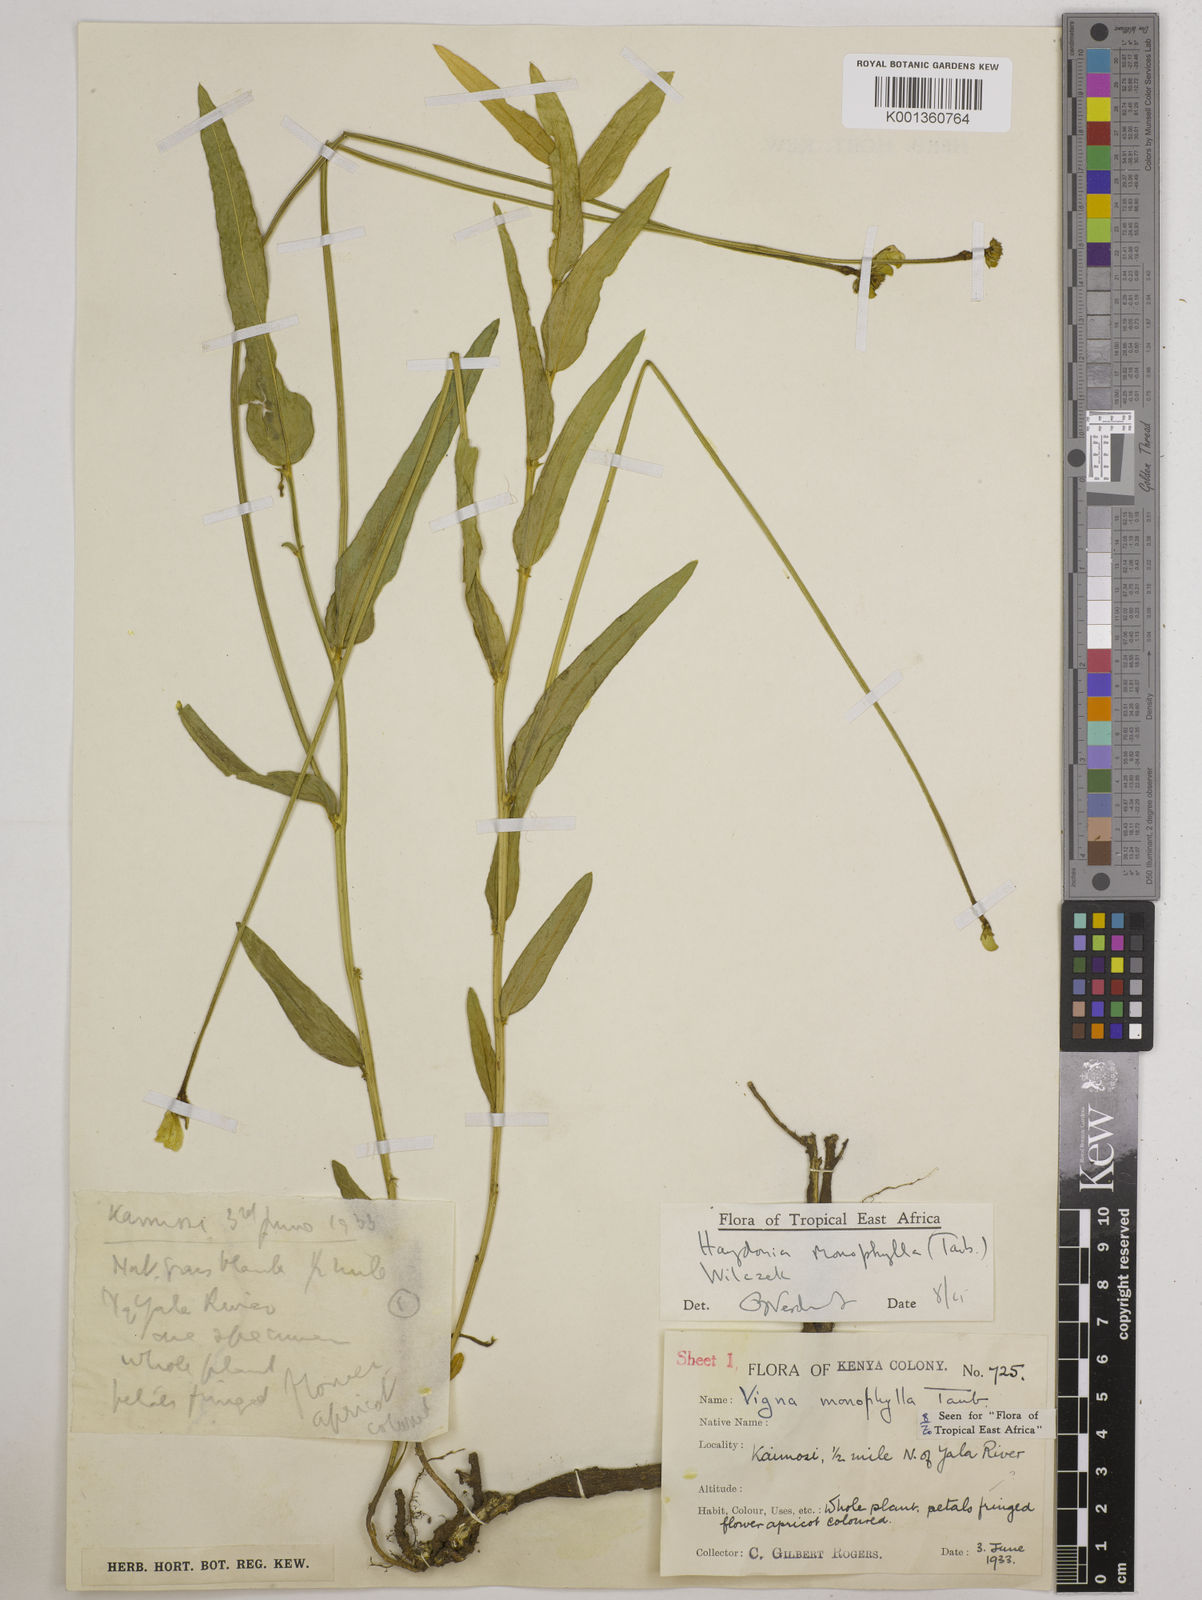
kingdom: Plantae
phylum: Tracheophyta
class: Magnoliopsida
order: Fabales
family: Fabaceae
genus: Vigna
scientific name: Vigna monophylla
